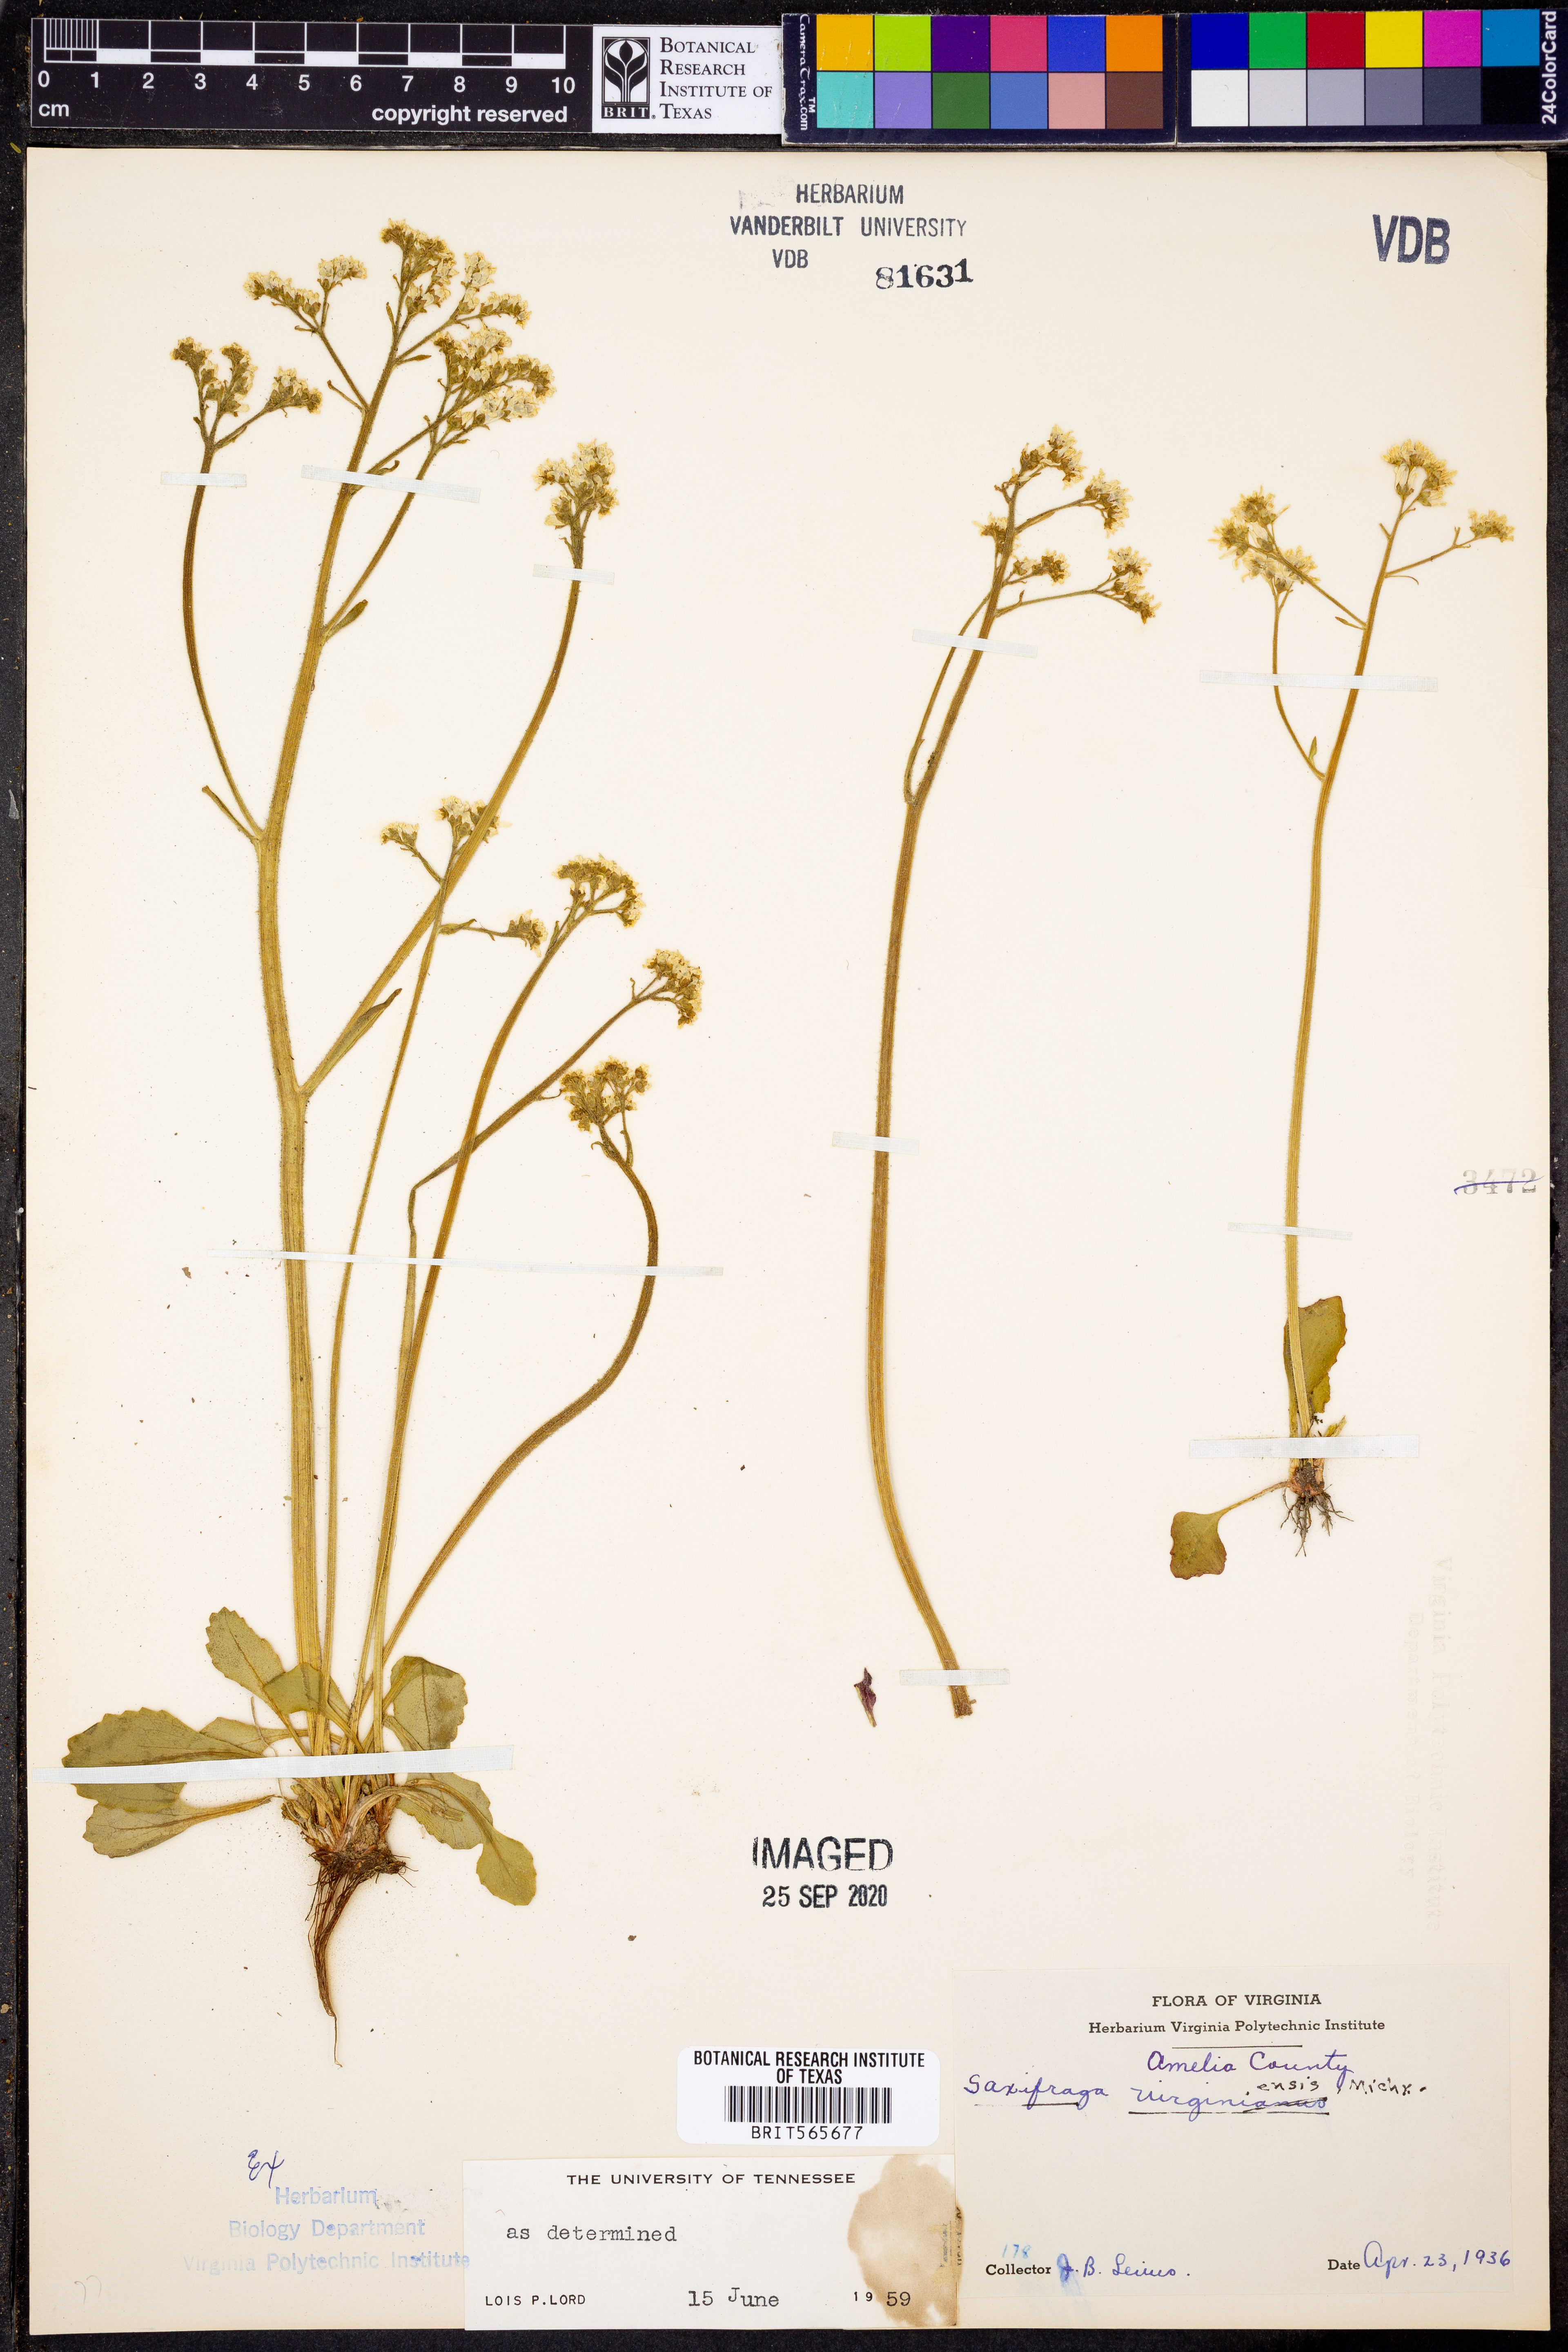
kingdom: Plantae
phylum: Tracheophyta
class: Magnoliopsida
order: Saxifragales
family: Saxifragaceae
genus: Micranthes
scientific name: Micranthes virginiensis
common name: Early saxifrage
